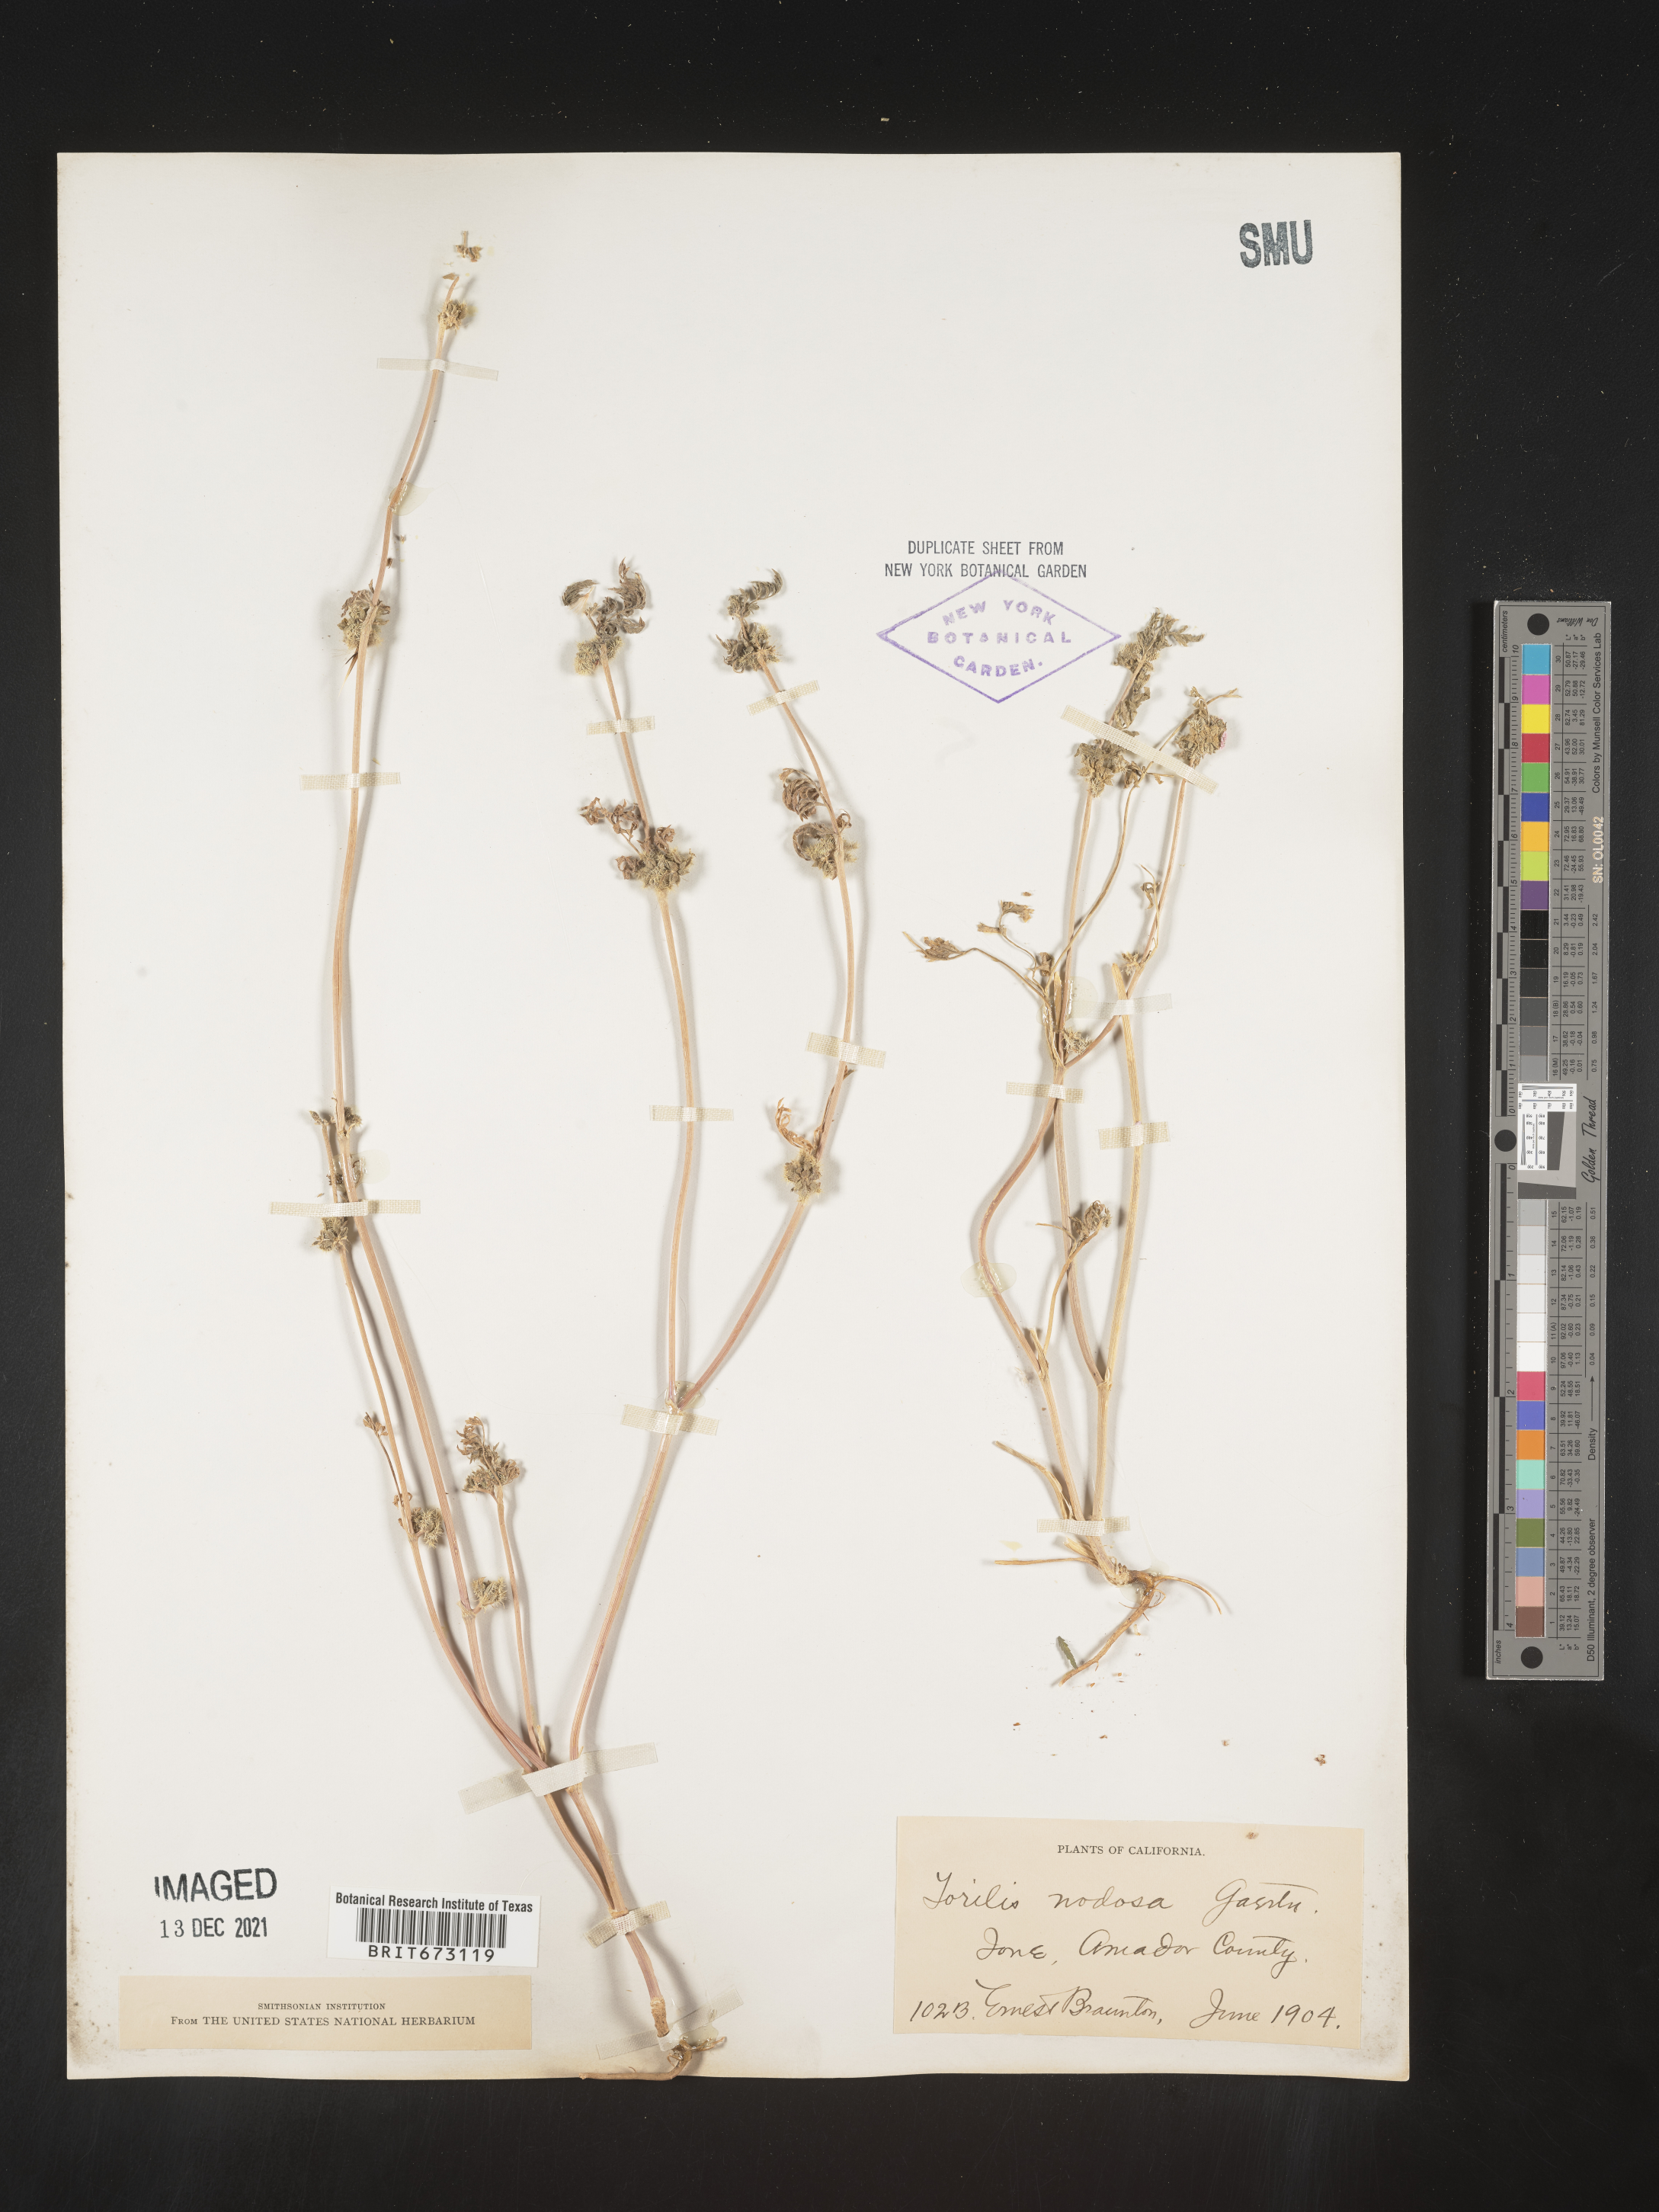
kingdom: Plantae
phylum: Tracheophyta
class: Magnoliopsida
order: Apiales
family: Apiaceae
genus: Torilis
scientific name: Torilis nodosa
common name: Knotted hedge-parsley
